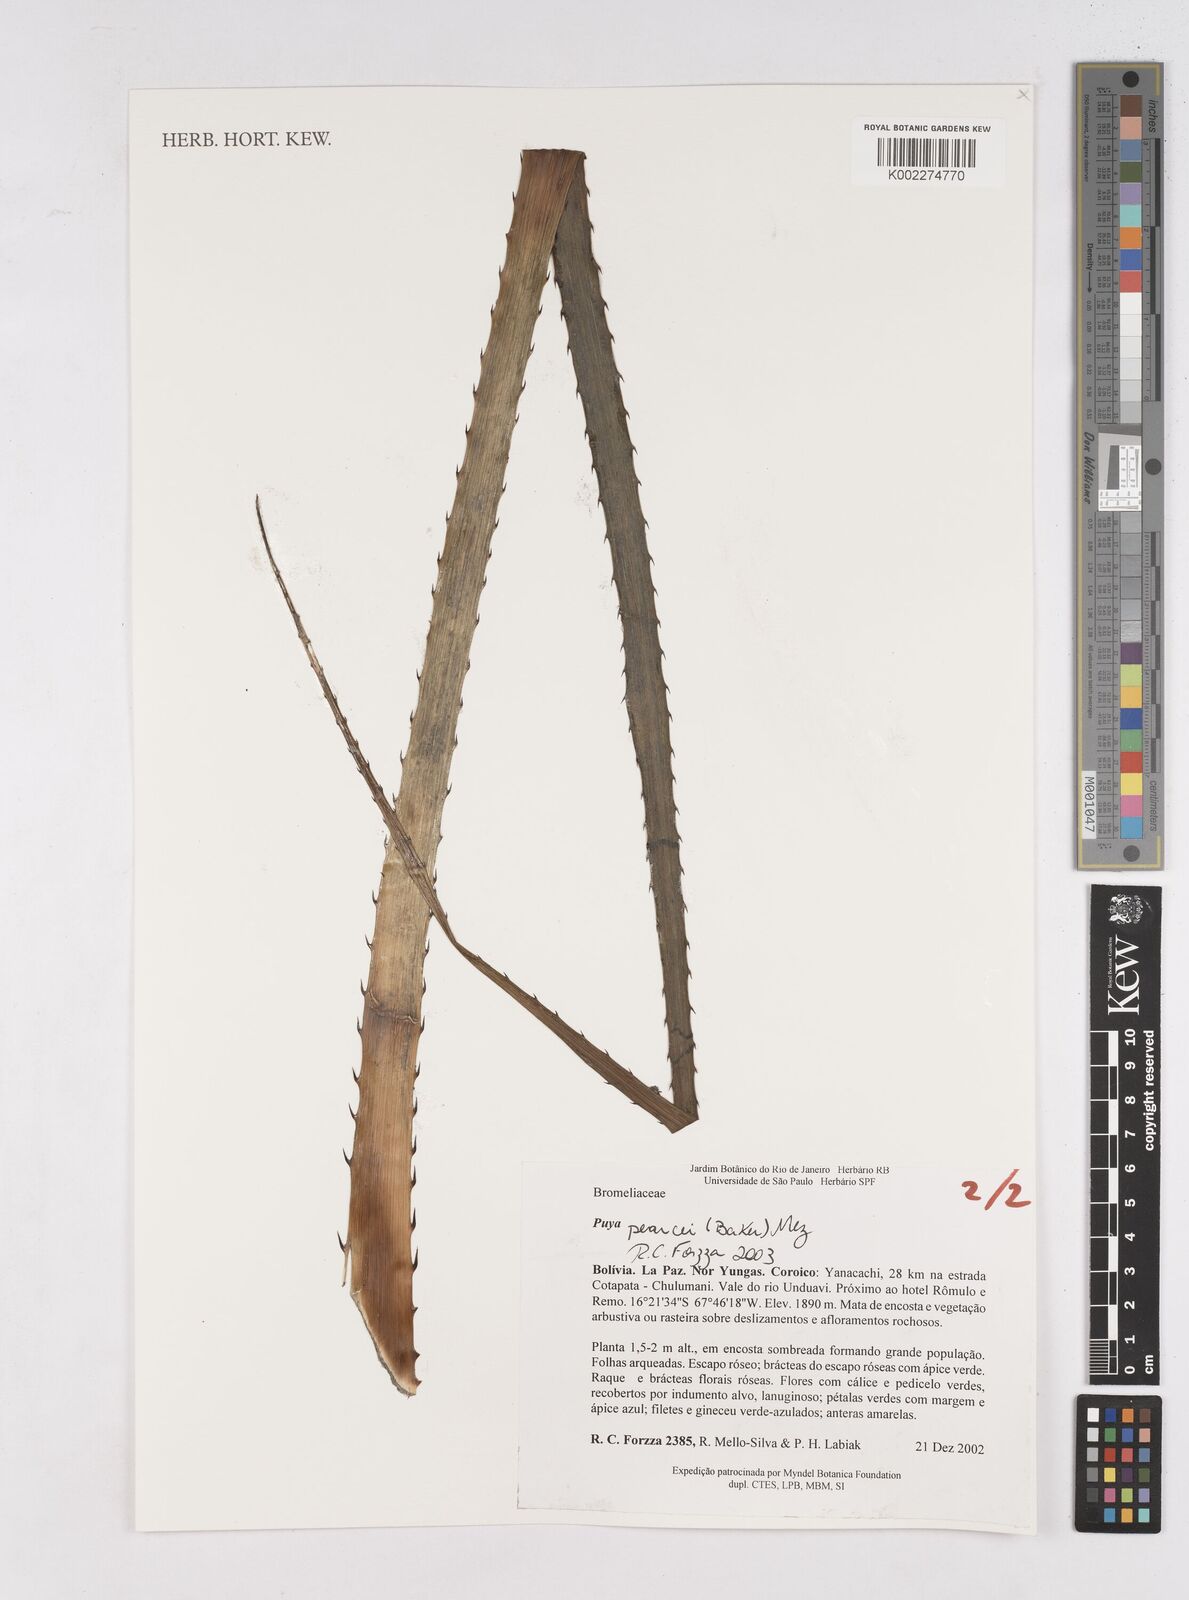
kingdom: Plantae
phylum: Tracheophyta
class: Liliopsida
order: Poales
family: Bromeliaceae
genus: Puya
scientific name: Puya pearcei
